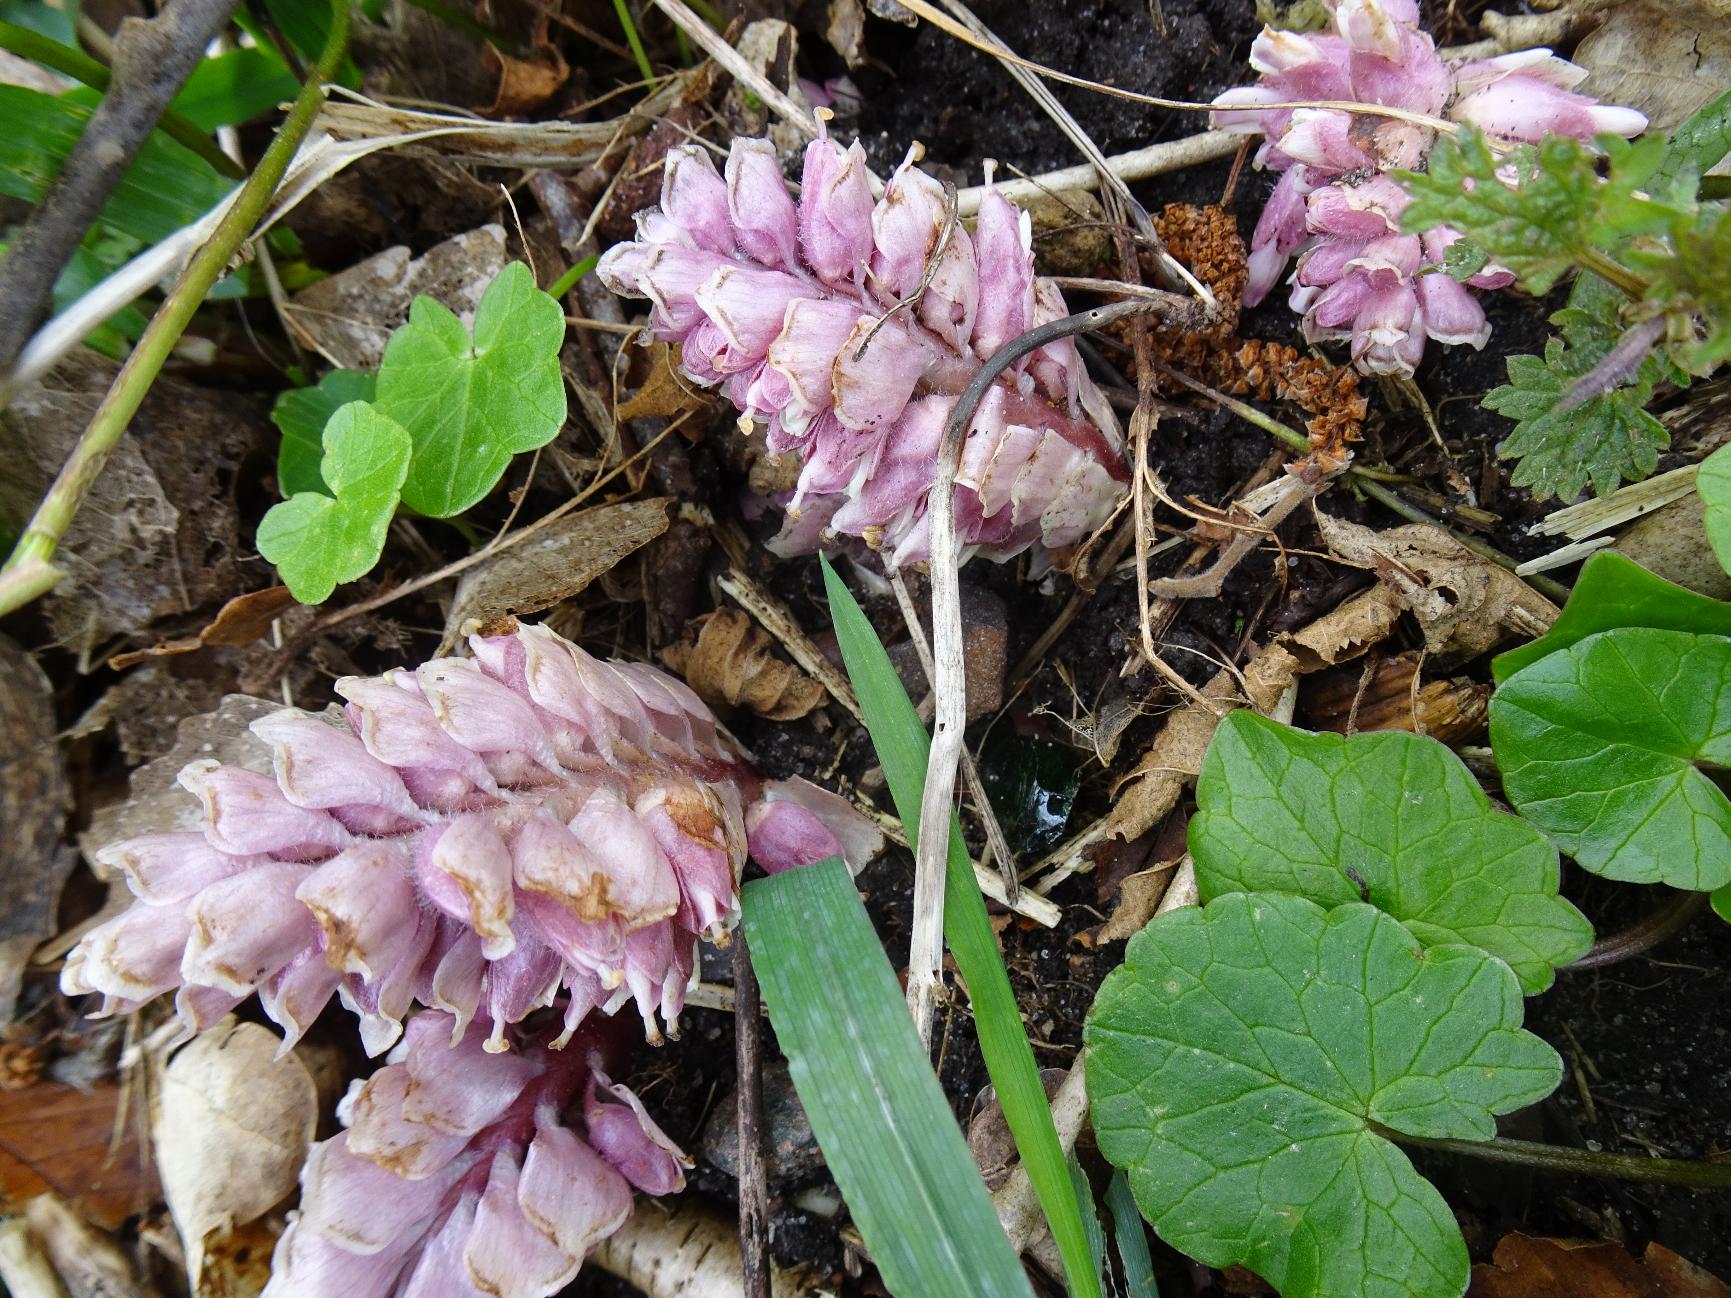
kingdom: Plantae
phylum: Tracheophyta
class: Magnoliopsida
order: Lamiales
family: Orobanchaceae
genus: Lathraea
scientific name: Lathraea squamaria
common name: Skælrod
